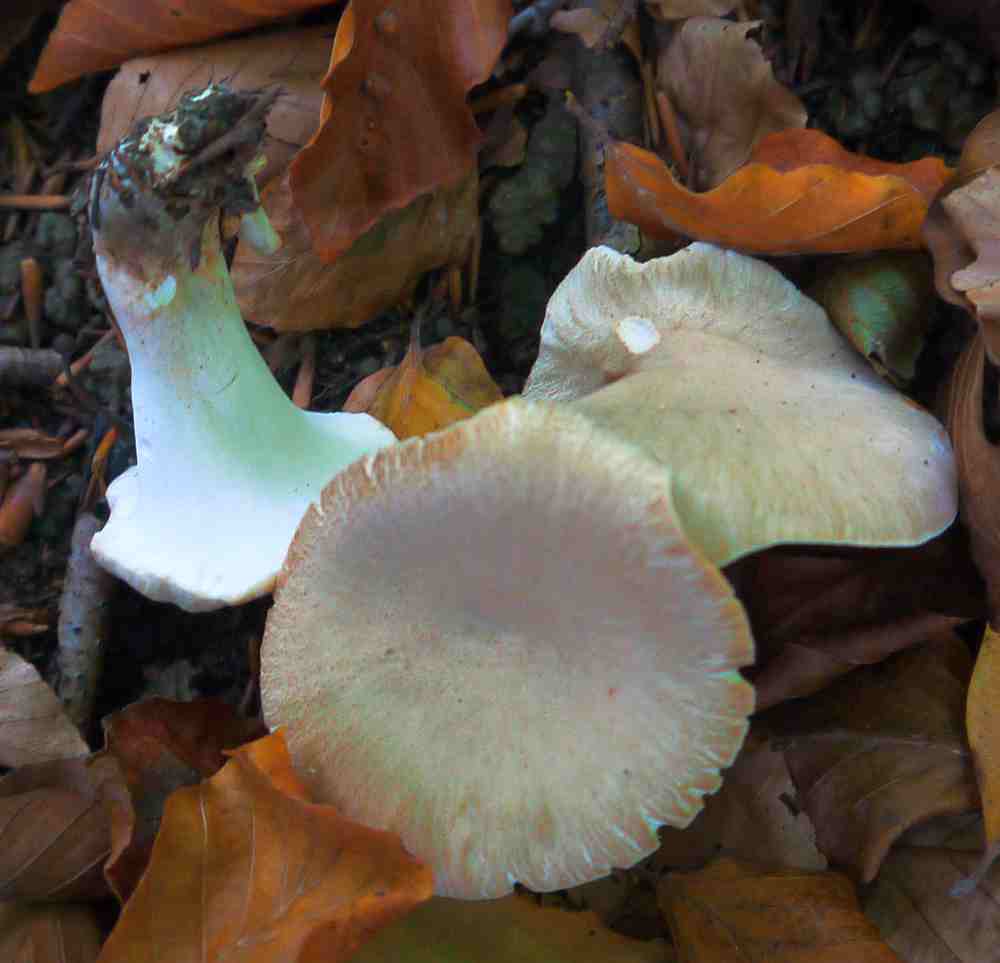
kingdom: Fungi
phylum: Basidiomycota
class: Agaricomycetes
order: Polyporales
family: Polyporaceae
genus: Picipes
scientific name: Picipes melanopus
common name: sortfodet stilkporesvamp
